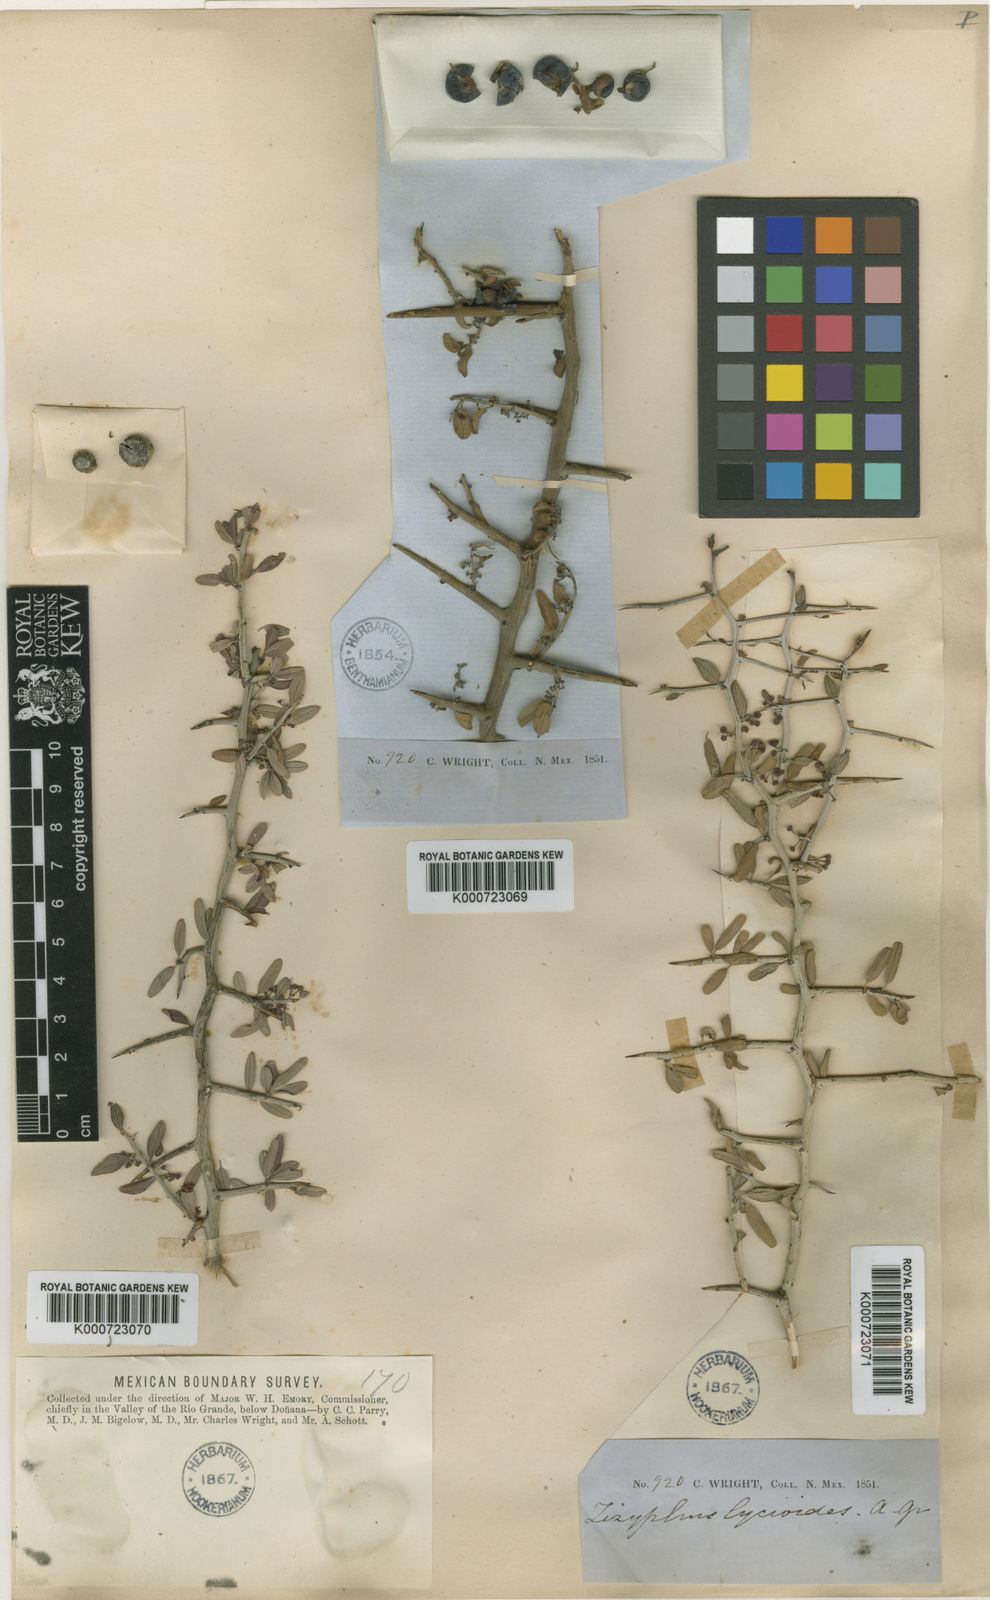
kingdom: Plantae
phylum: Tracheophyta
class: Magnoliopsida
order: Rosales
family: Rhamnaceae
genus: Sarcomphalus
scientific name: Sarcomphalus obtusifolius
